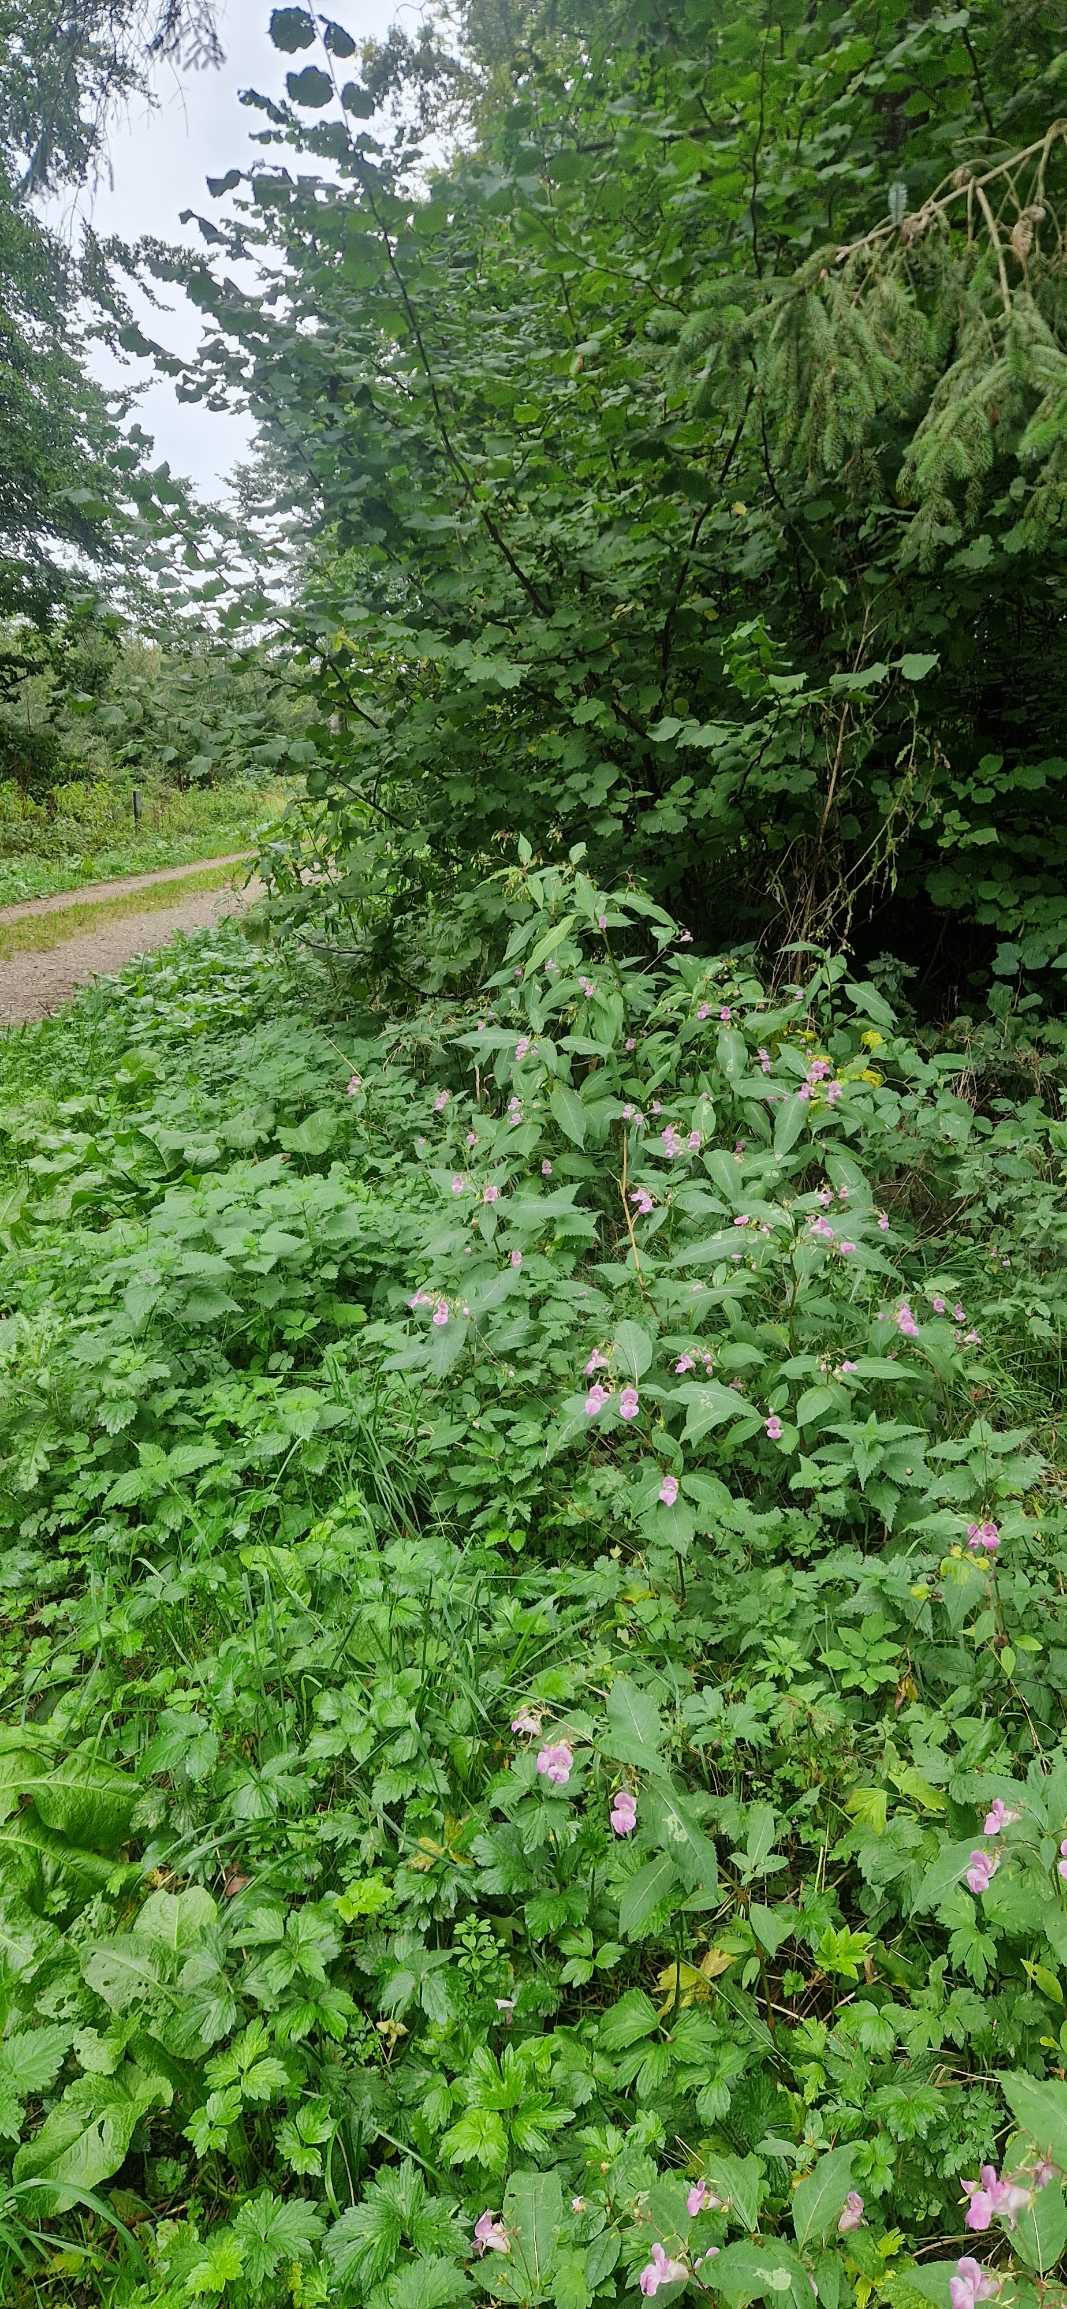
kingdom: Plantae
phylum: Tracheophyta
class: Magnoliopsida
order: Ericales
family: Balsaminaceae
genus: Impatiens
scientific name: Impatiens glandulifera
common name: Kæmpe-balsamin
